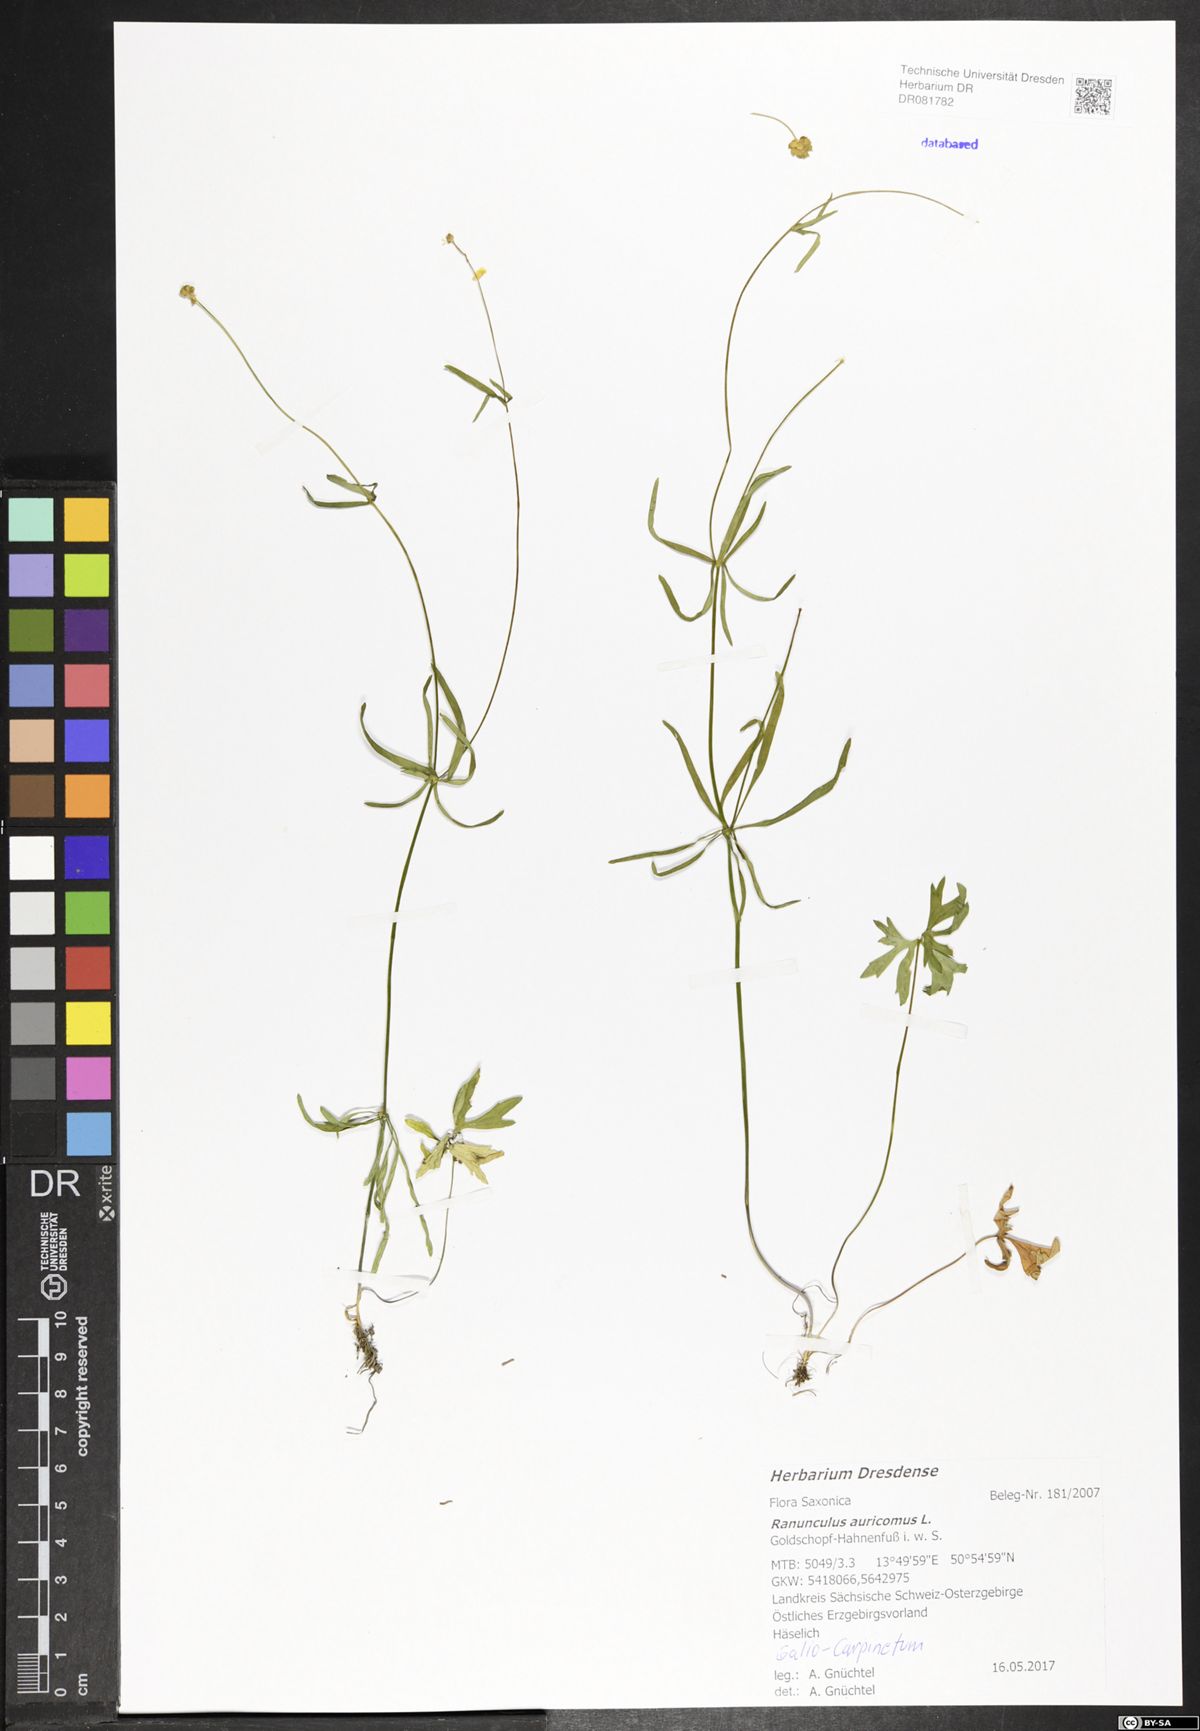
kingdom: Plantae
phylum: Tracheophyta
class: Magnoliopsida
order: Ranunculales
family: Ranunculaceae
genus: Ranunculus
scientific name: Ranunculus auricomus
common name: Goldilocks buttercup
